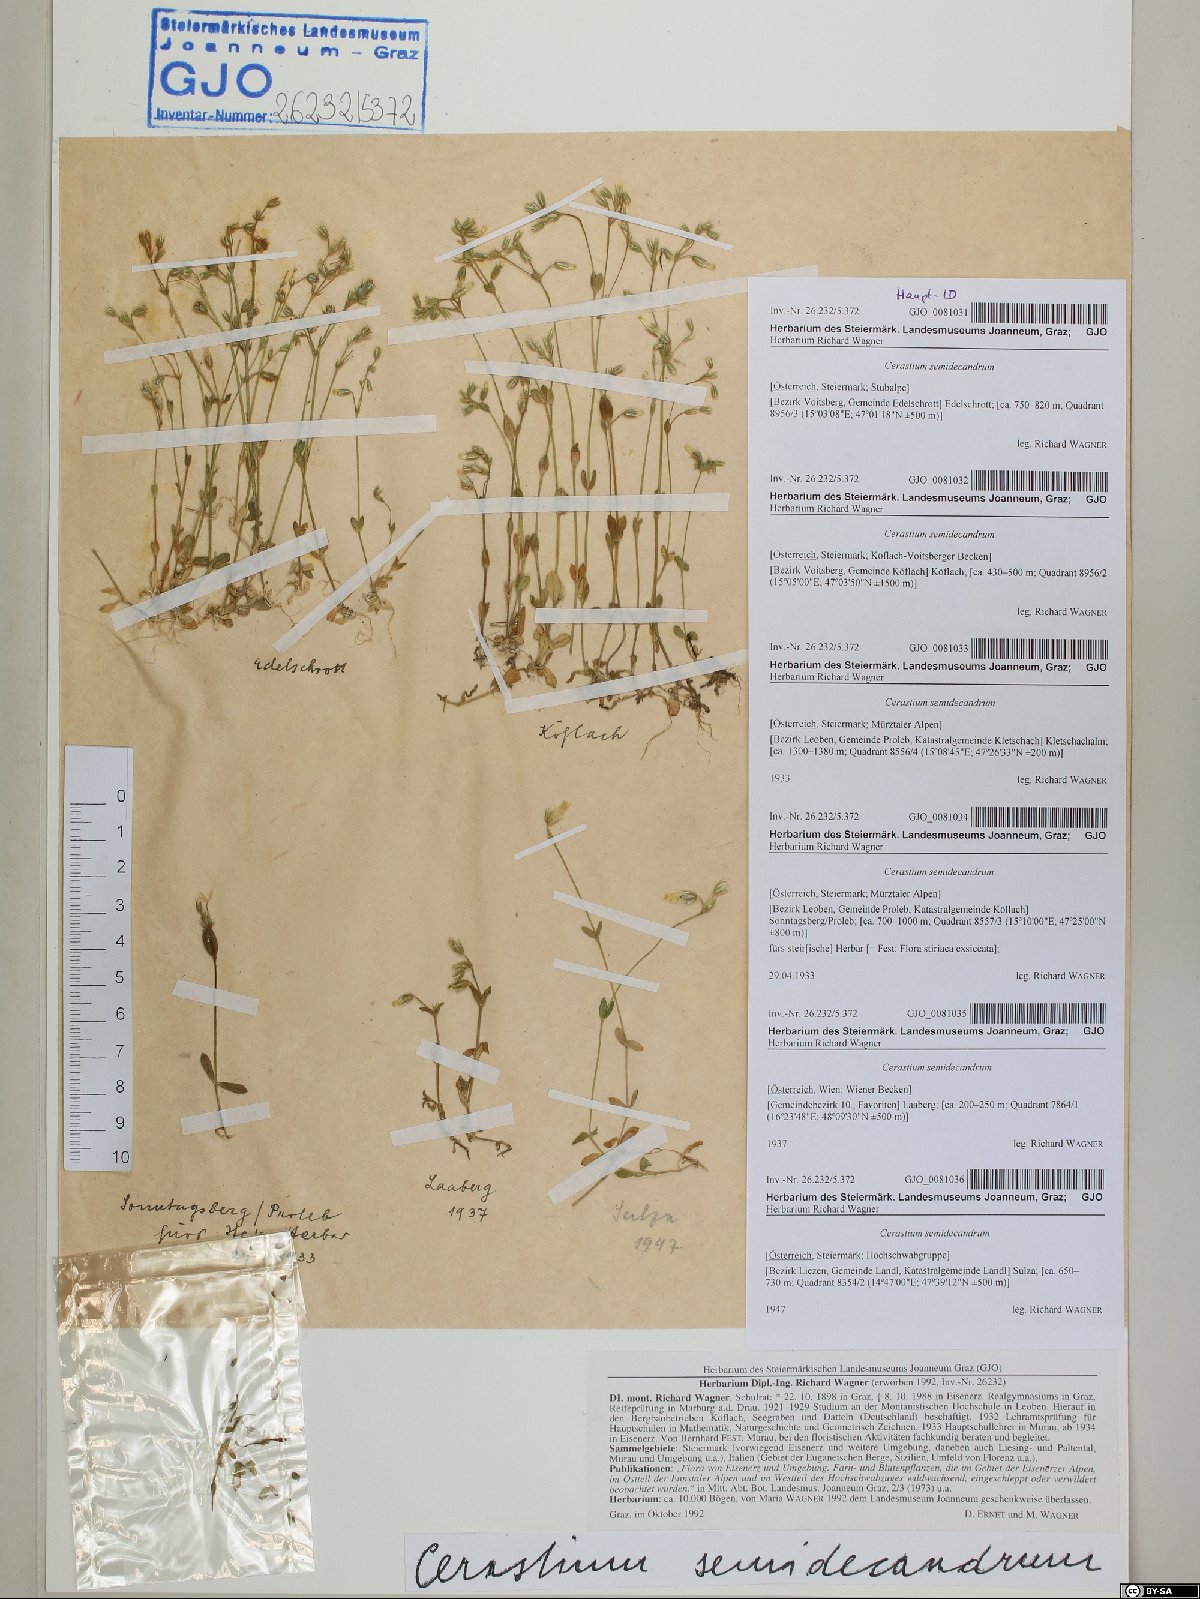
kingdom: Plantae
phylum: Tracheophyta
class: Magnoliopsida
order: Caryophyllales
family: Caryophyllaceae
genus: Cerastium
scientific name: Cerastium semidecandrum
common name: Little mouse-ear
